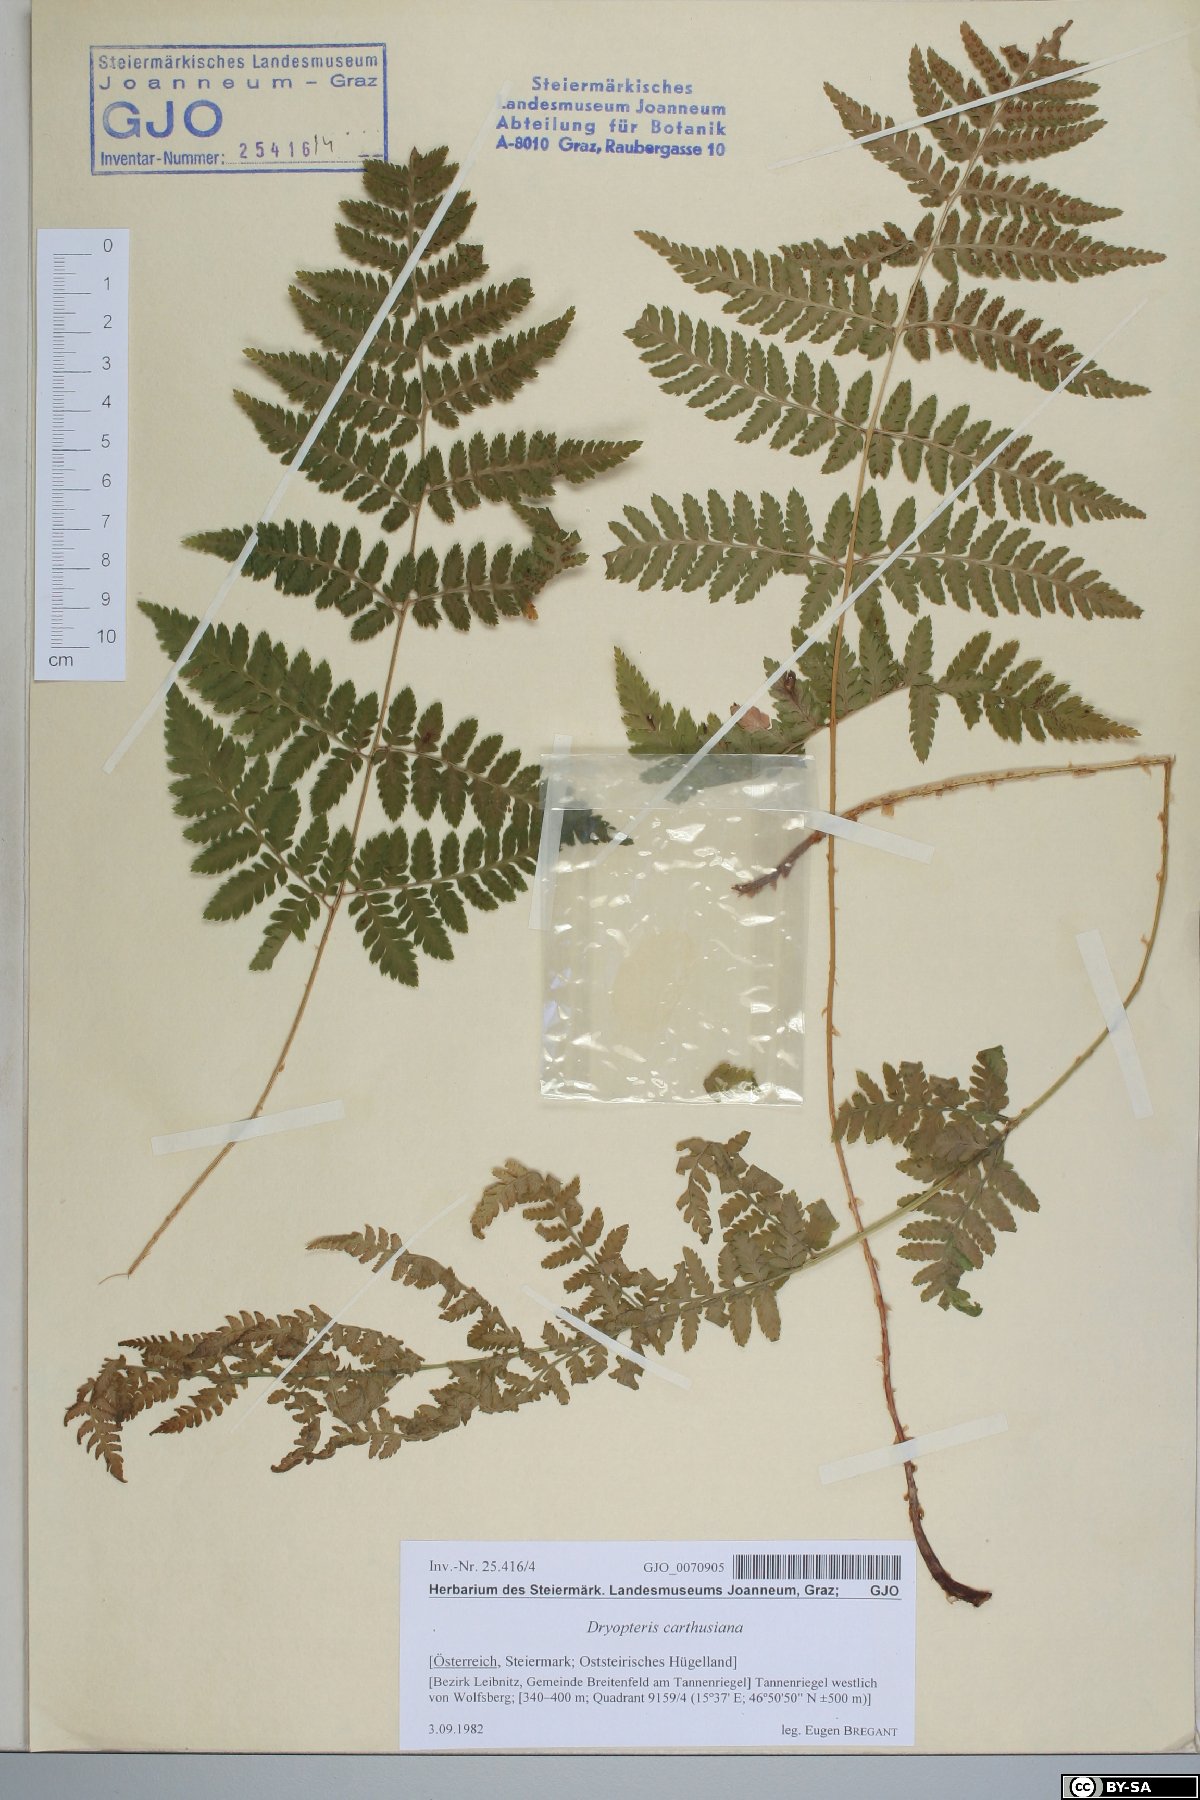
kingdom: Plantae
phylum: Tracheophyta
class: Polypodiopsida
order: Polypodiales
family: Dryopteridaceae
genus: Dryopteris
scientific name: Dryopteris carthusiana
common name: Narrow buckler-fern
